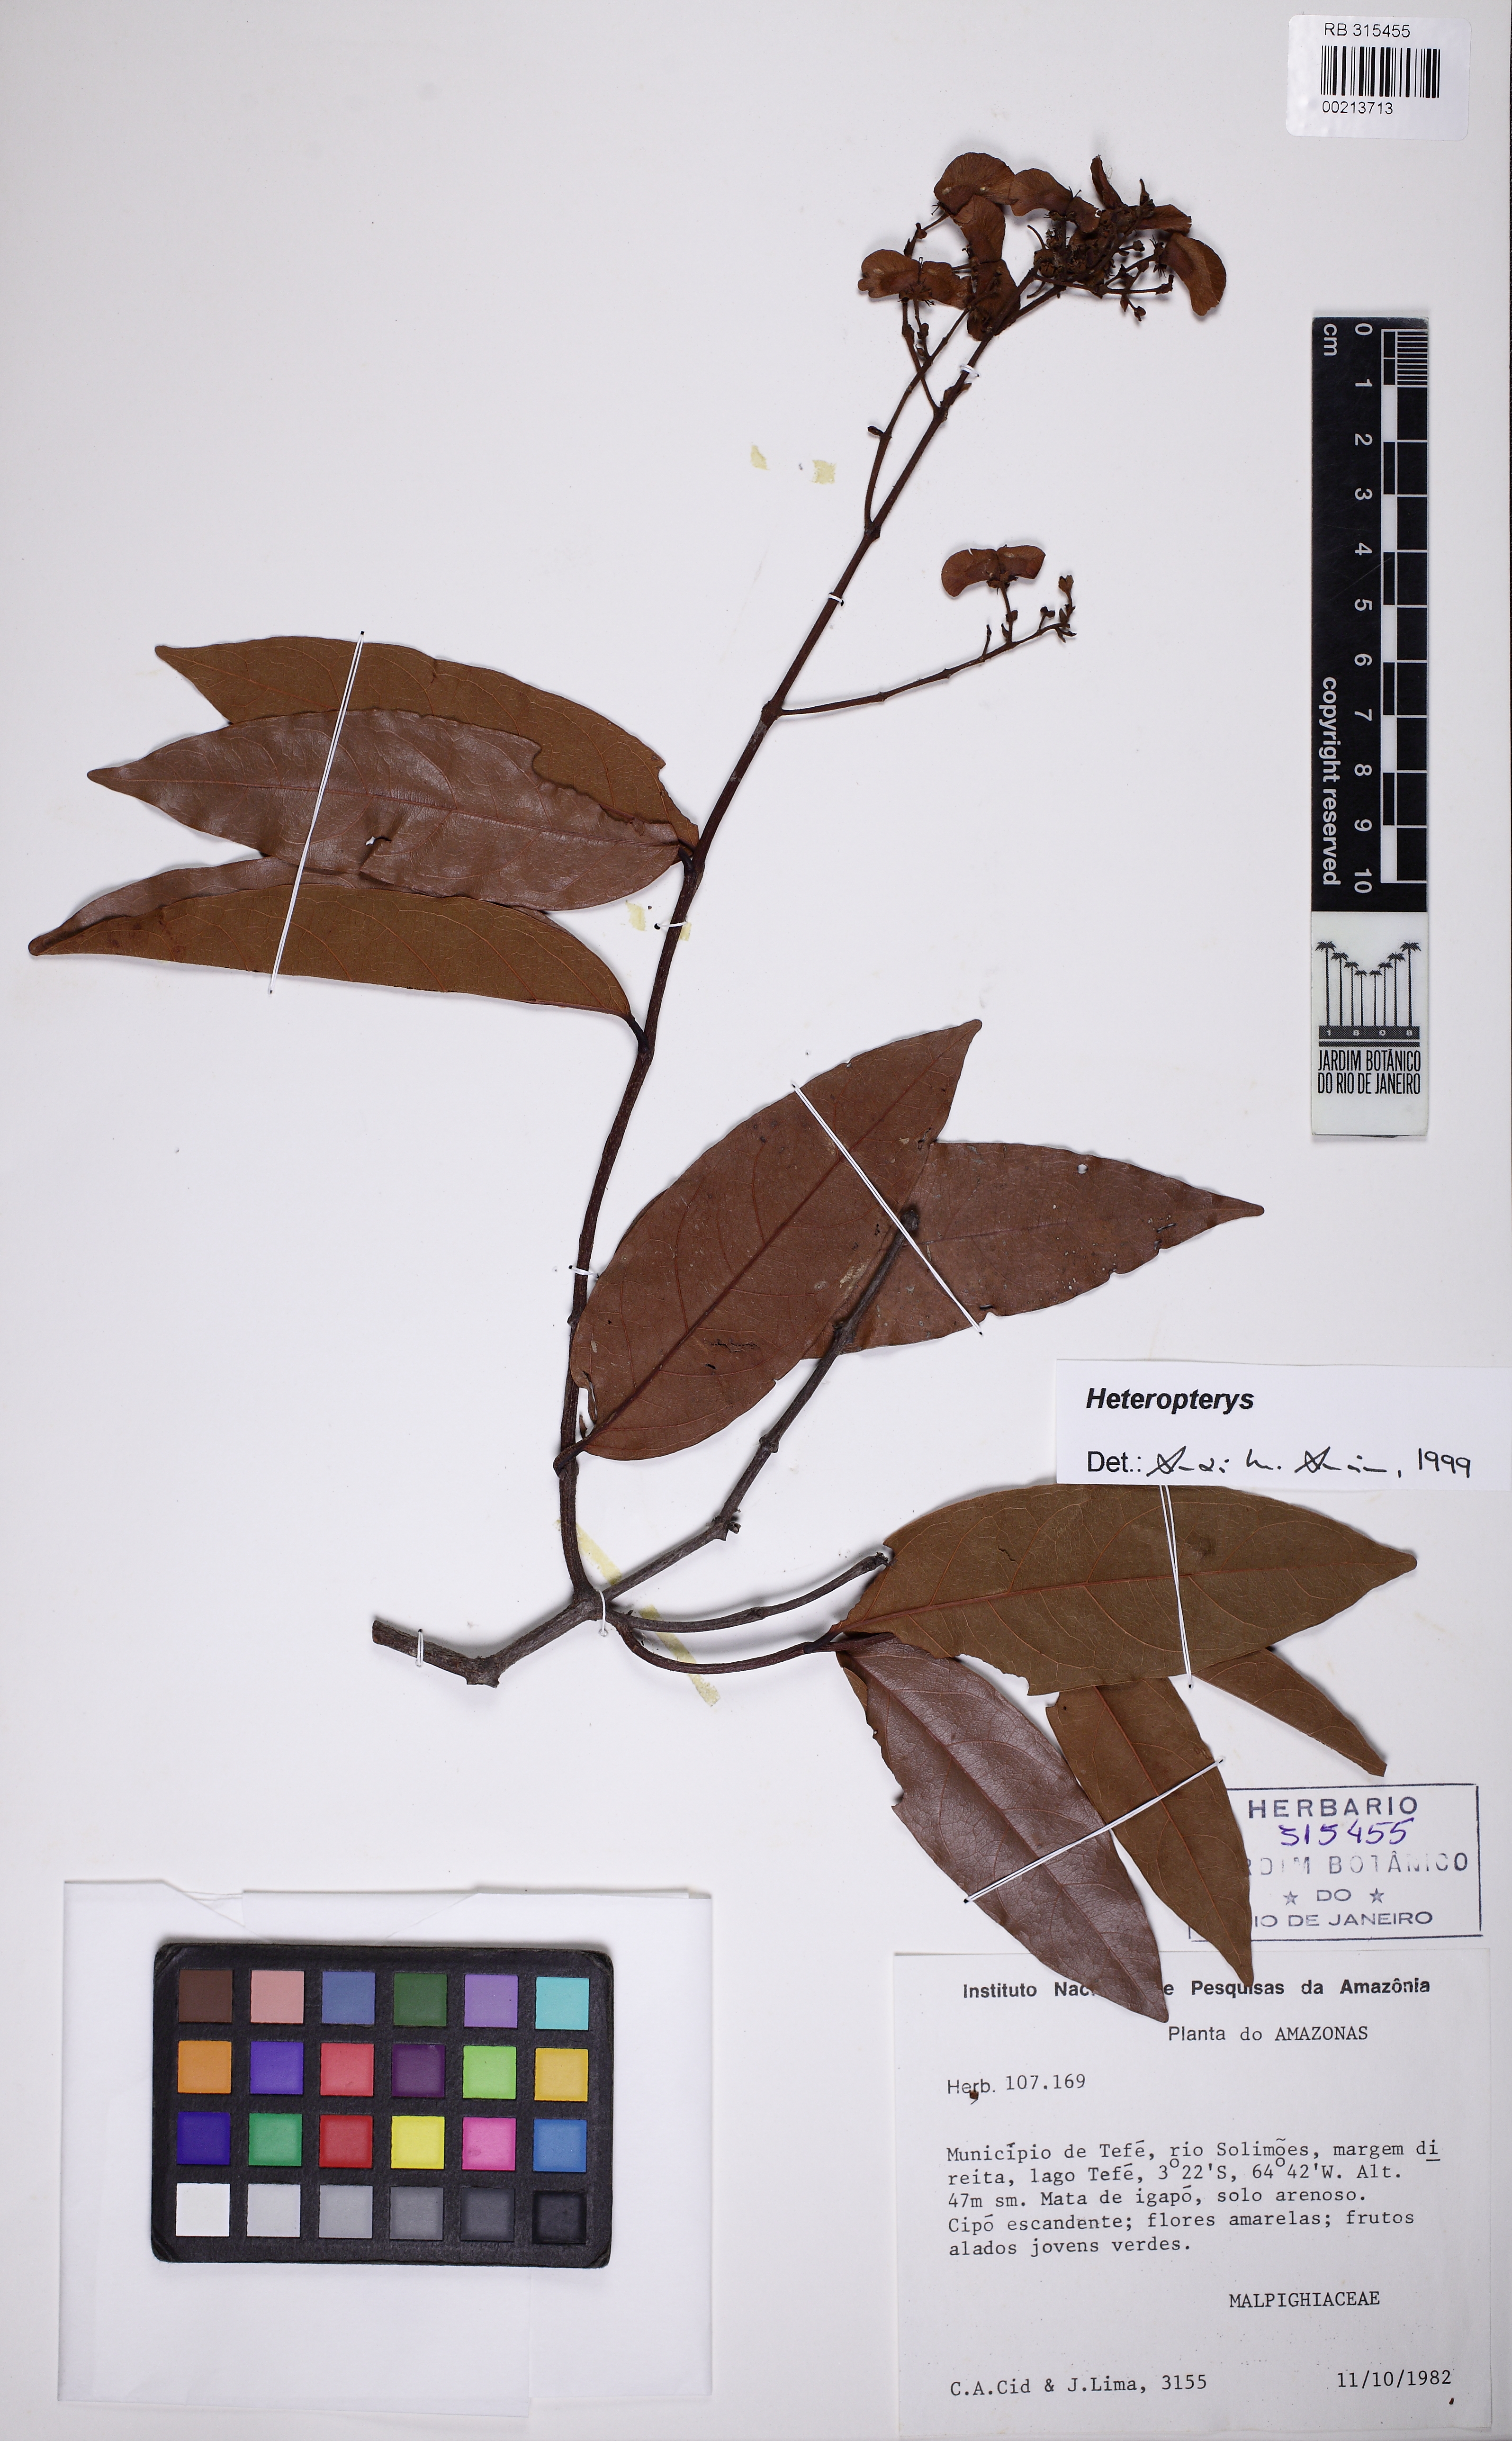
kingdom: Plantae
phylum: Tracheophyta
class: Magnoliopsida
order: Malpighiales
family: Malpighiaceae
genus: Heteropterys
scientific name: Heteropterys
